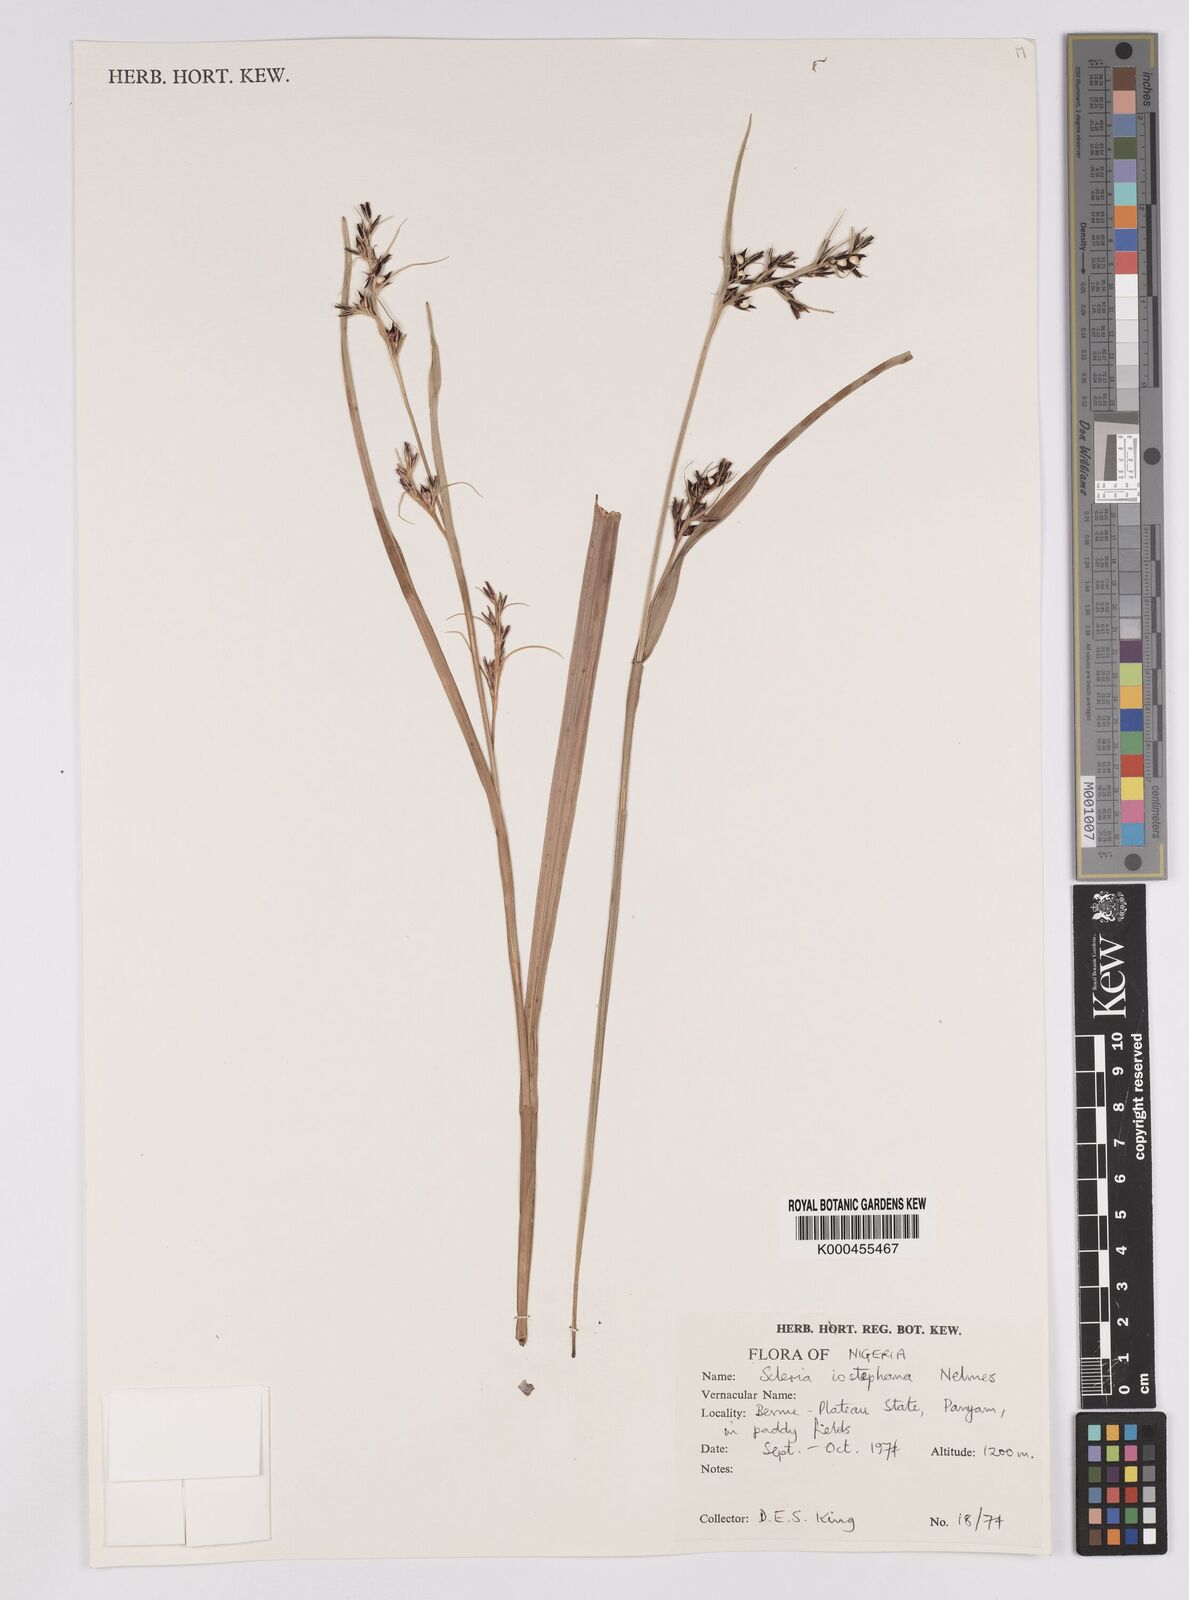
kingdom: Plantae
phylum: Tracheophyta
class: Liliopsida
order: Poales
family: Cyperaceae
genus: Scleria
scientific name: Scleria iostephana
